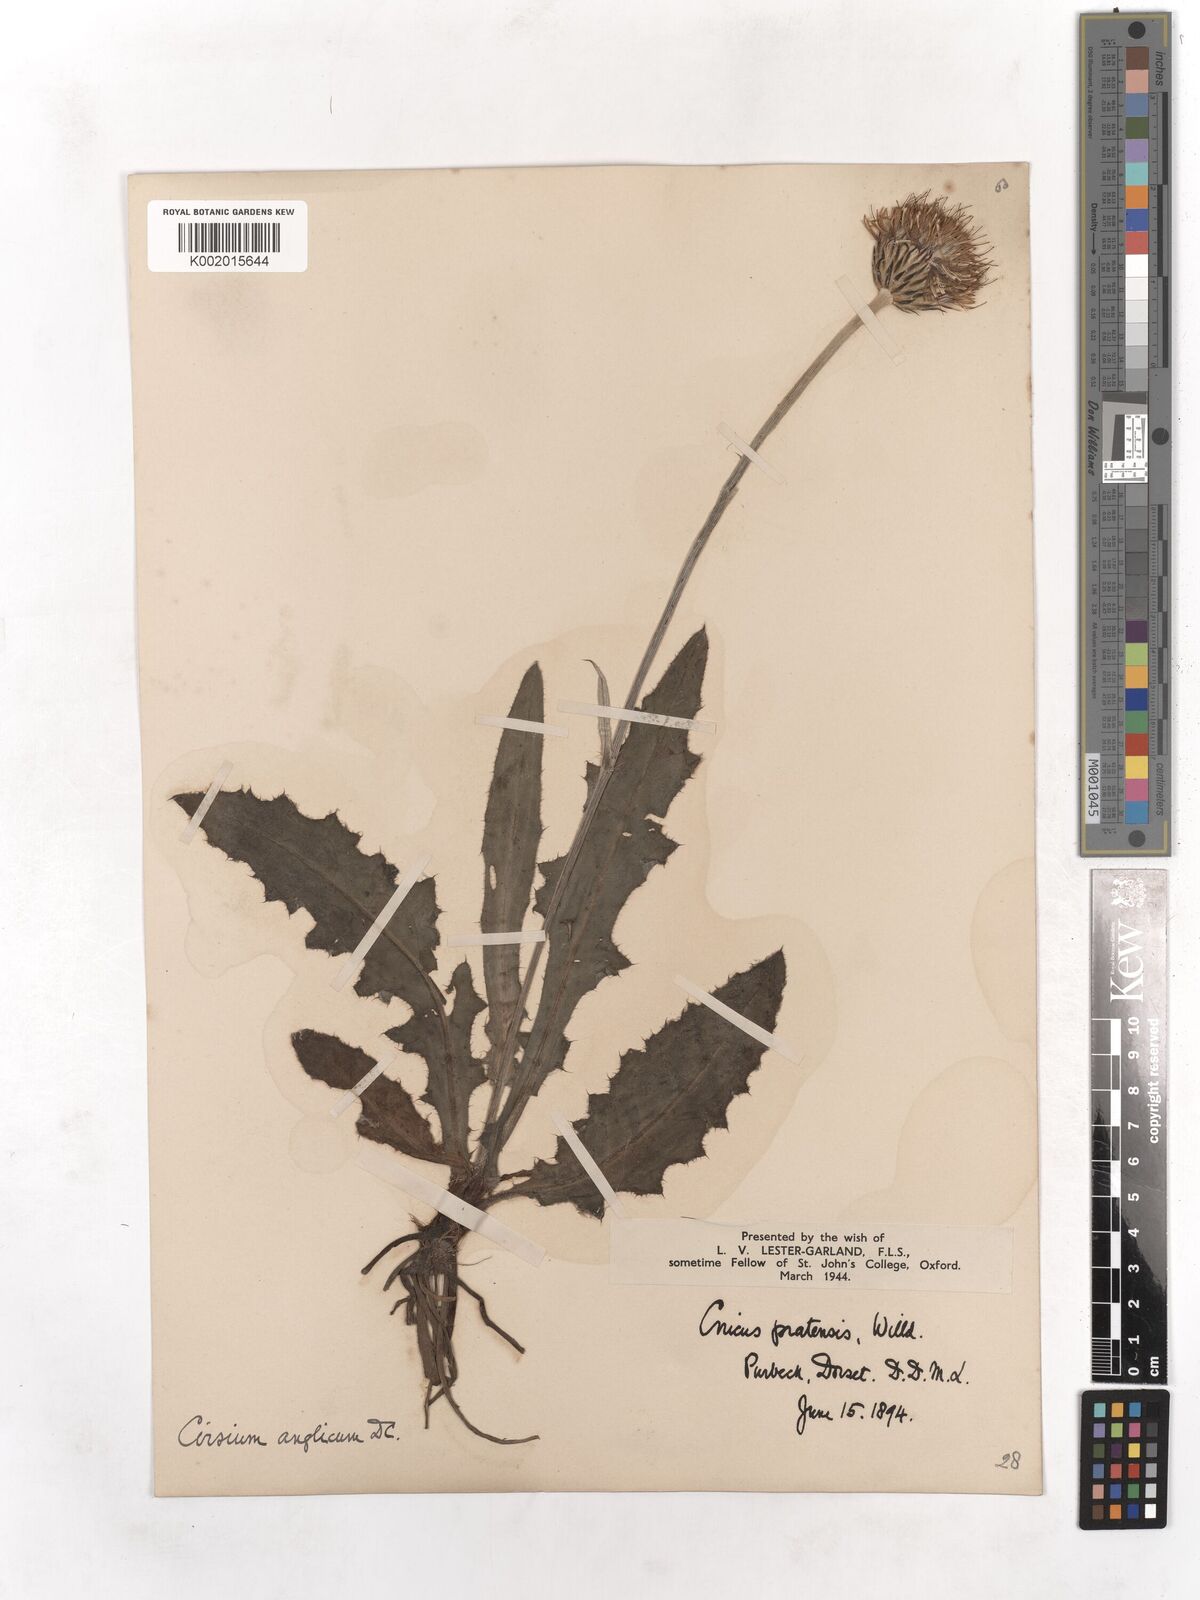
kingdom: Plantae
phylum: Tracheophyta
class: Magnoliopsida
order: Asterales
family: Asteraceae
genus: Cirsium
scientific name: Cirsium
